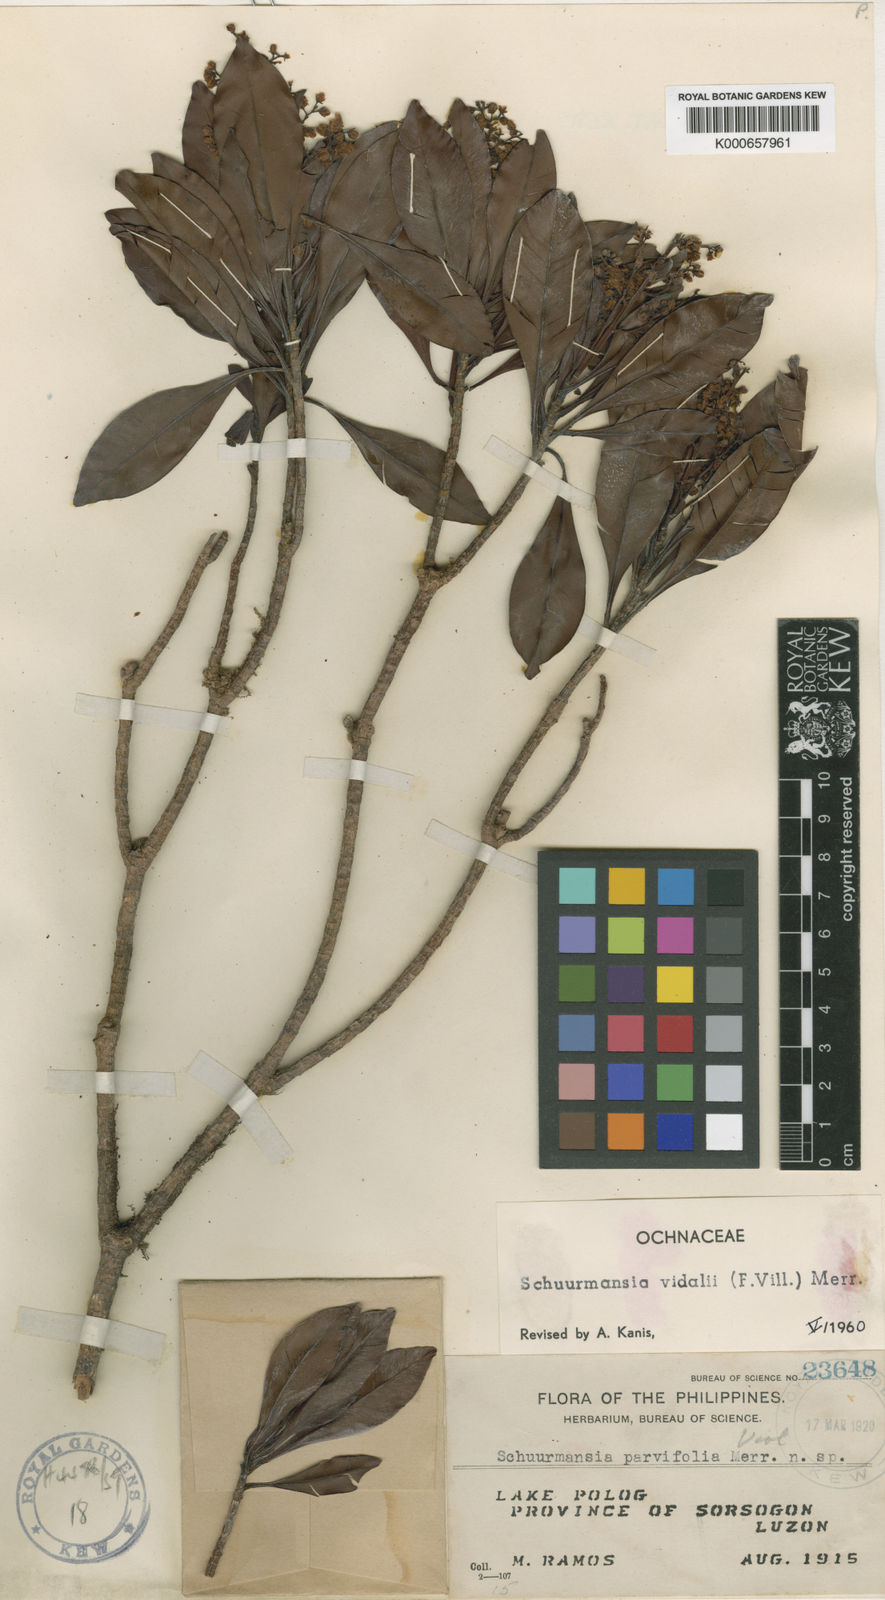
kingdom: Plantae
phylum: Tracheophyta
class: Magnoliopsida
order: Malpighiales
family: Ochnaceae
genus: Schuurmansia
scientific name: Schuurmansia vidalii
